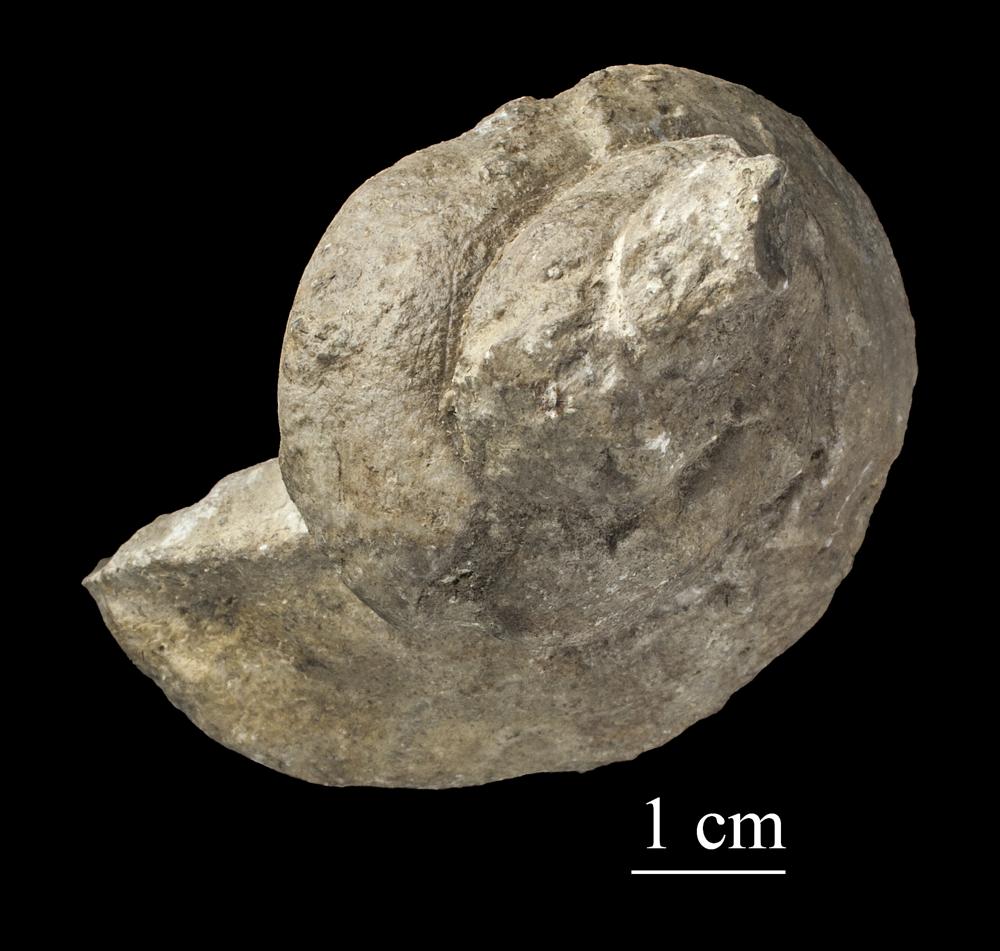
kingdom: Animalia
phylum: Mollusca
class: Gastropoda
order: Pleurotomariida
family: Phymatopleuridae
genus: Worthenia
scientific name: Worthenia
